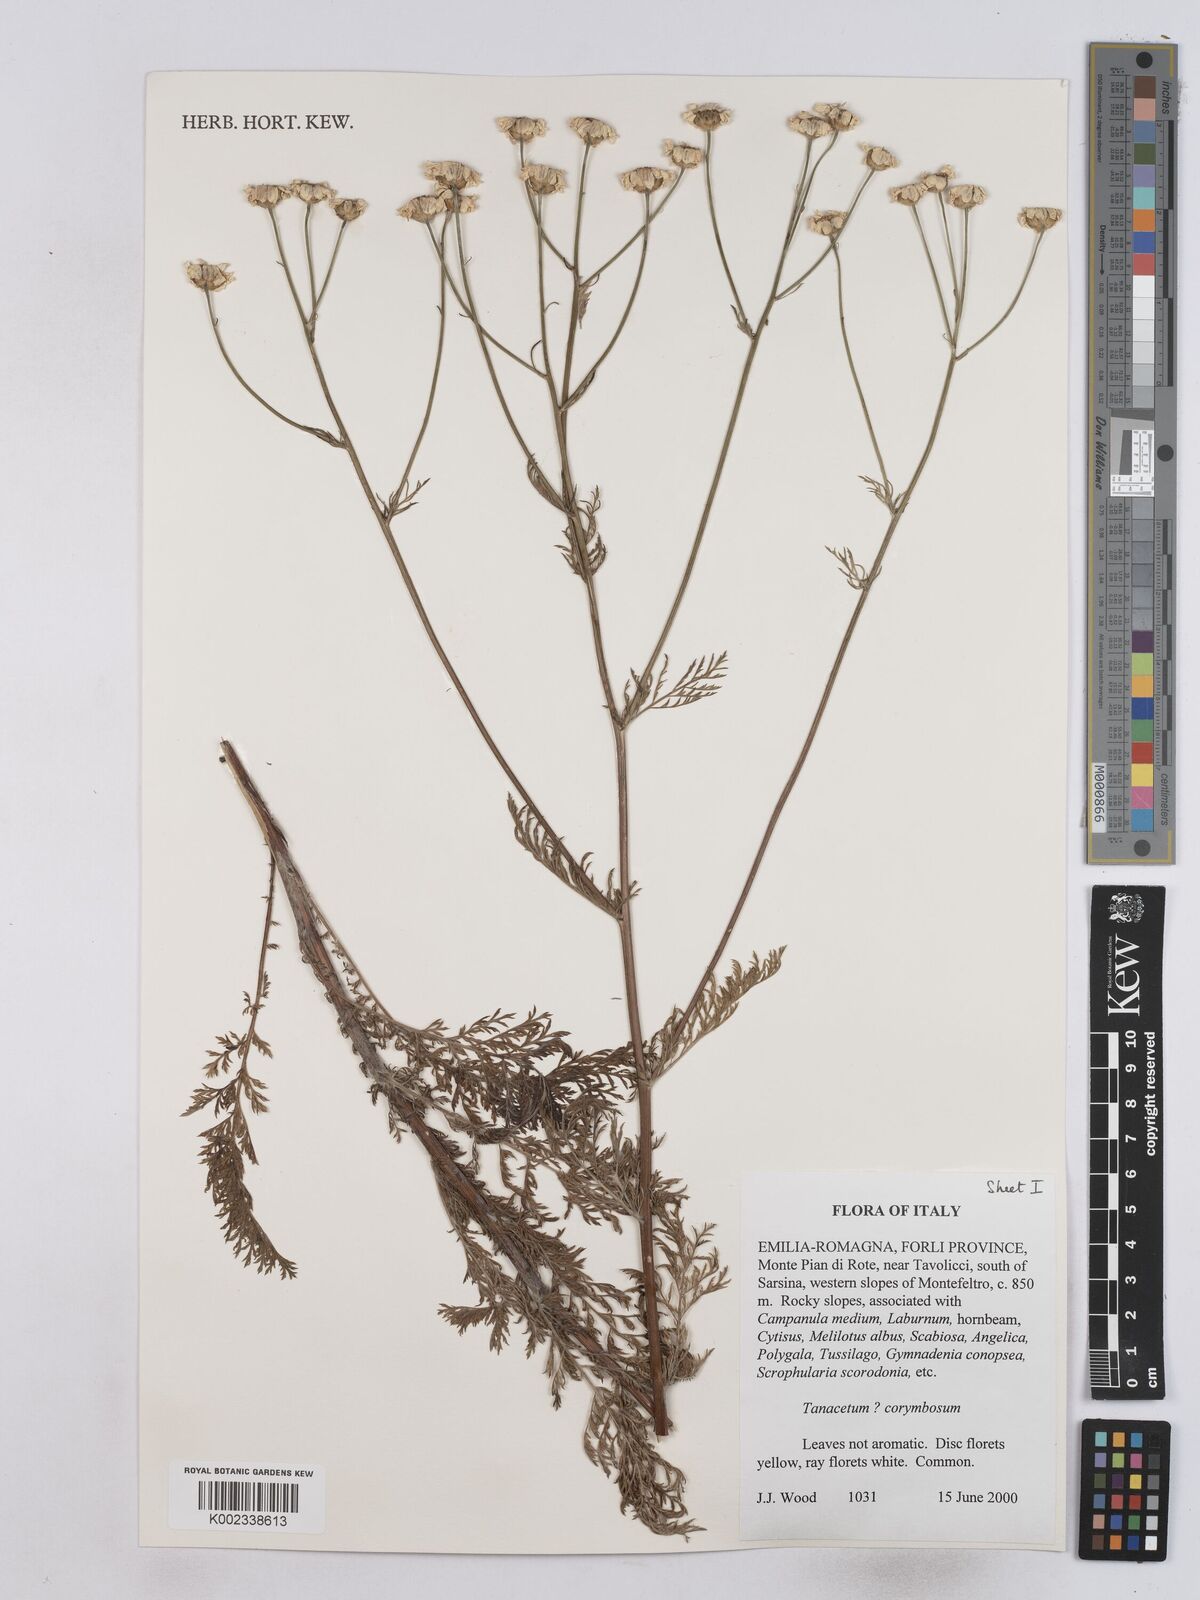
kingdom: Plantae
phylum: Tracheophyta
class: Magnoliopsida
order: Asterales
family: Asteraceae
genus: Tanacetum
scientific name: Tanacetum corymbosum
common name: Scentless feverfew
